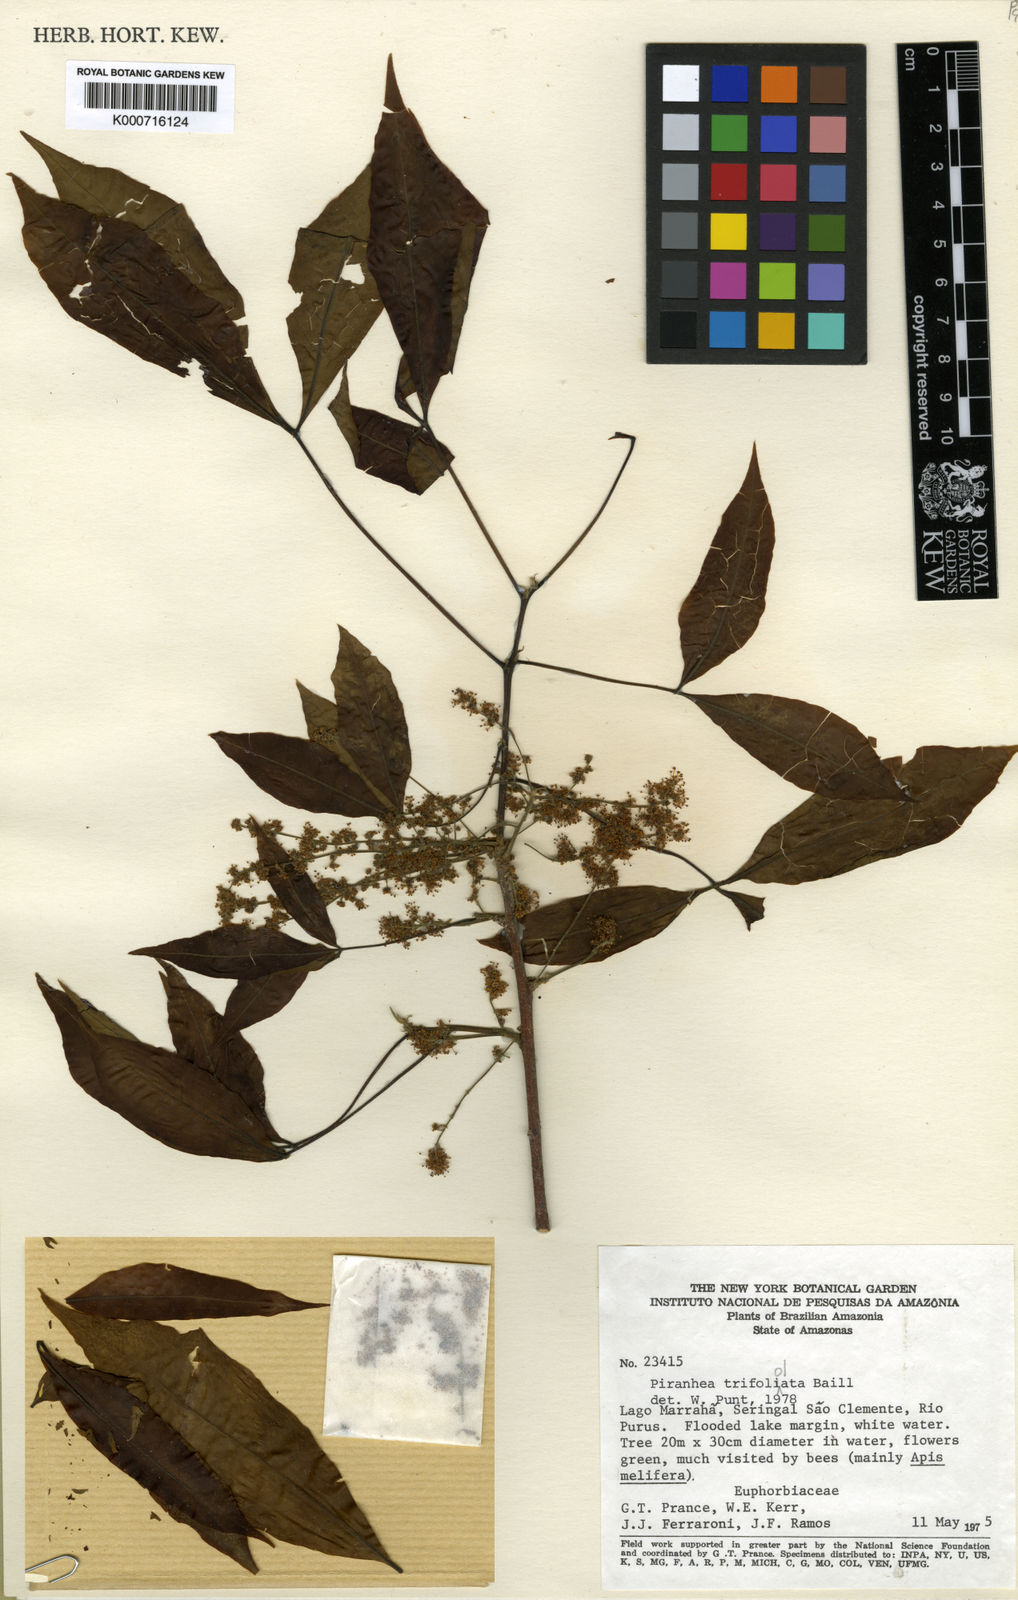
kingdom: Plantae
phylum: Tracheophyta
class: Magnoliopsida
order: Malpighiales
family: Picrodendraceae
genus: Piranhea
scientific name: Piranhea
